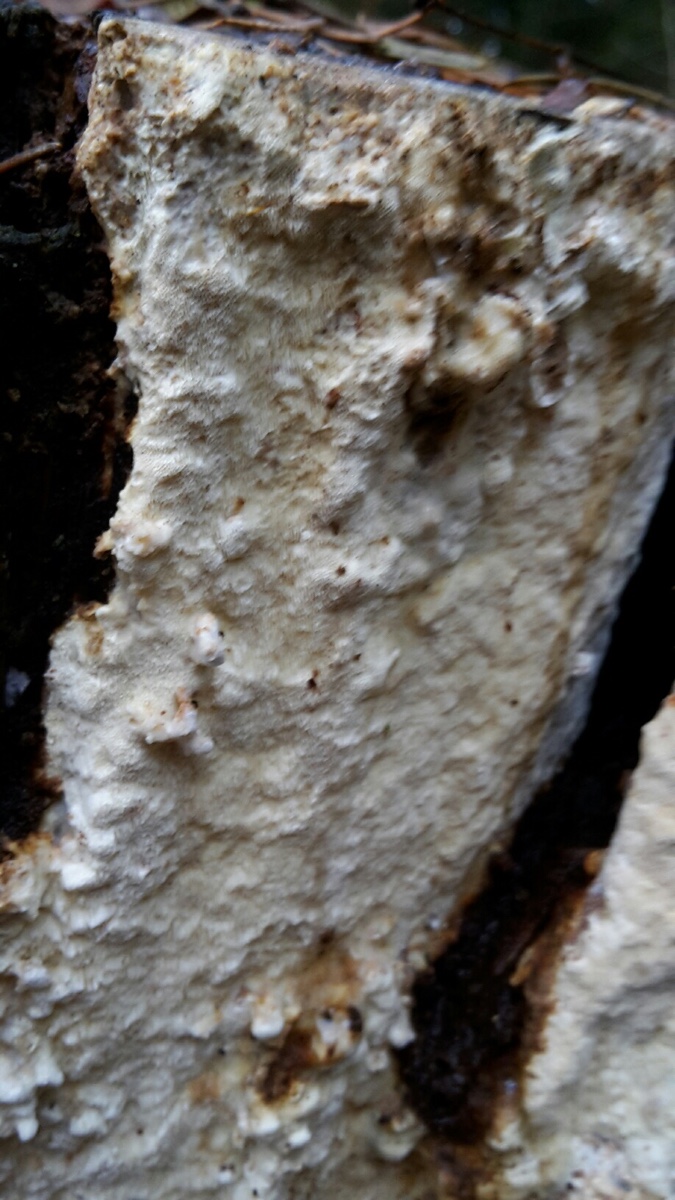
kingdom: Fungi
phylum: Basidiomycota
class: Agaricomycetes
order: Polyporales
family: Fomitopsidaceae
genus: Daedalea
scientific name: Daedalea xantha
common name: gul sejporesvamp
